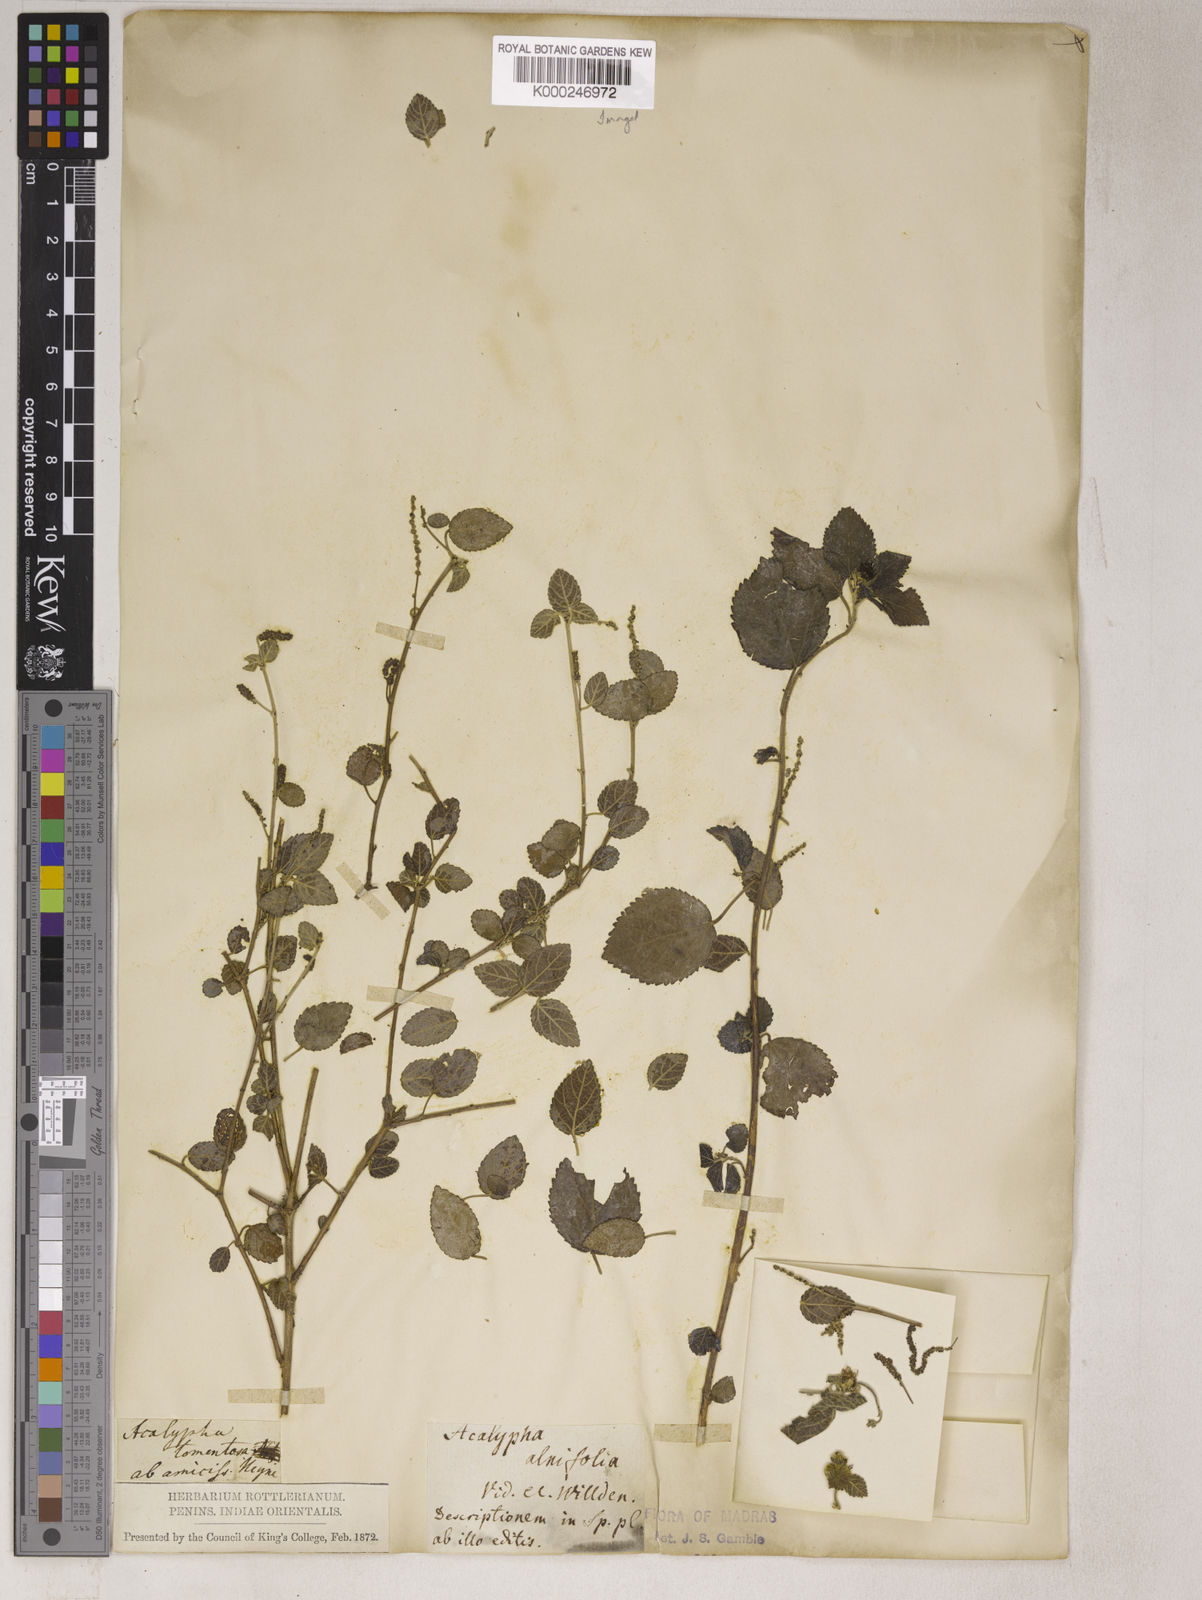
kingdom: Plantae
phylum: Tracheophyta
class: Magnoliopsida
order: Malpighiales
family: Euphorbiaceae
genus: Acalypha
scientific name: Acalypha capitata
